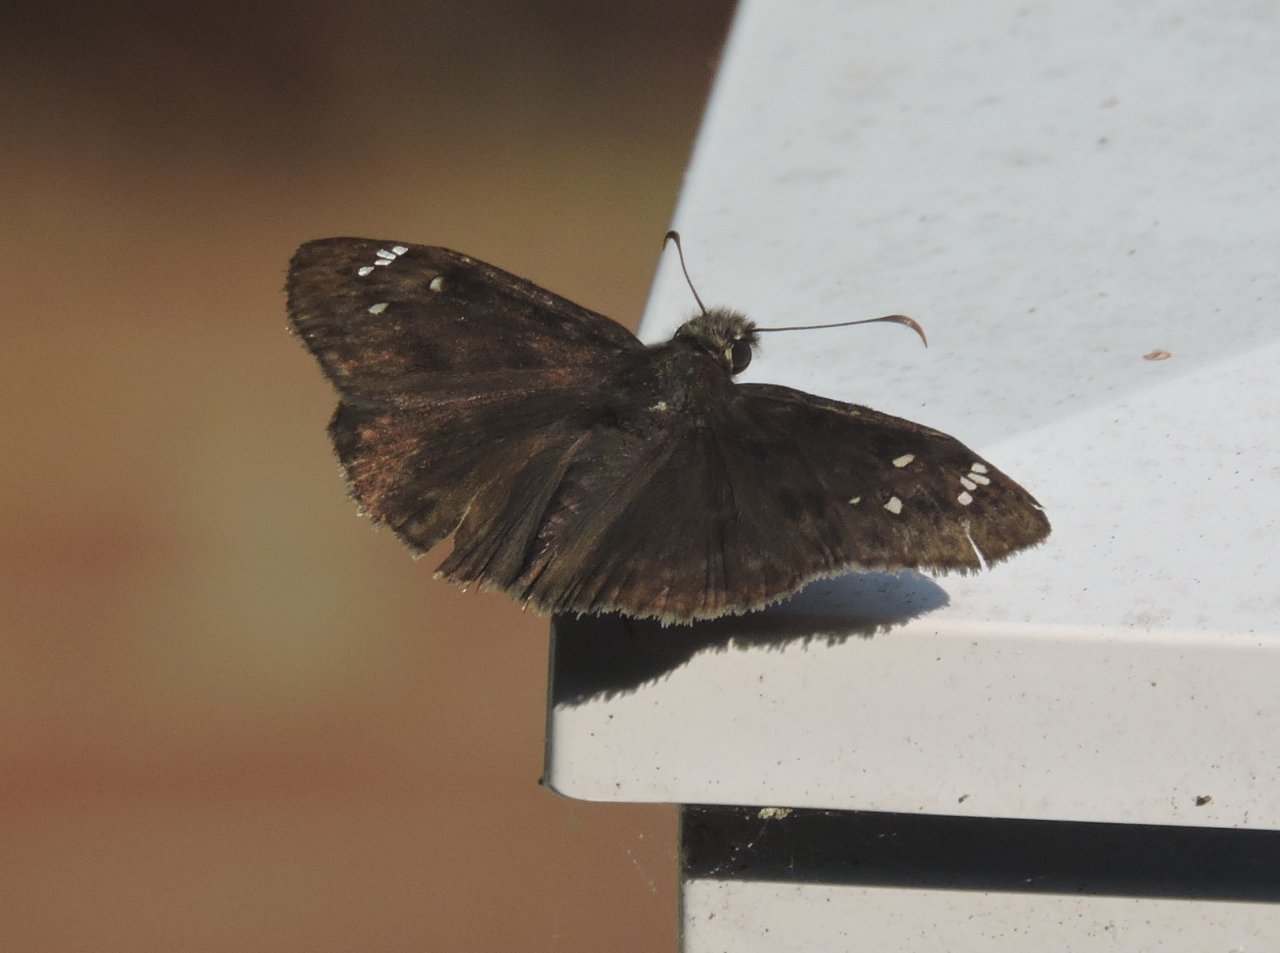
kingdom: Animalia
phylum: Arthropoda
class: Insecta
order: Lepidoptera
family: Hesperiidae
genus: Gesta
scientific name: Gesta
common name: Horace's Duskywing
